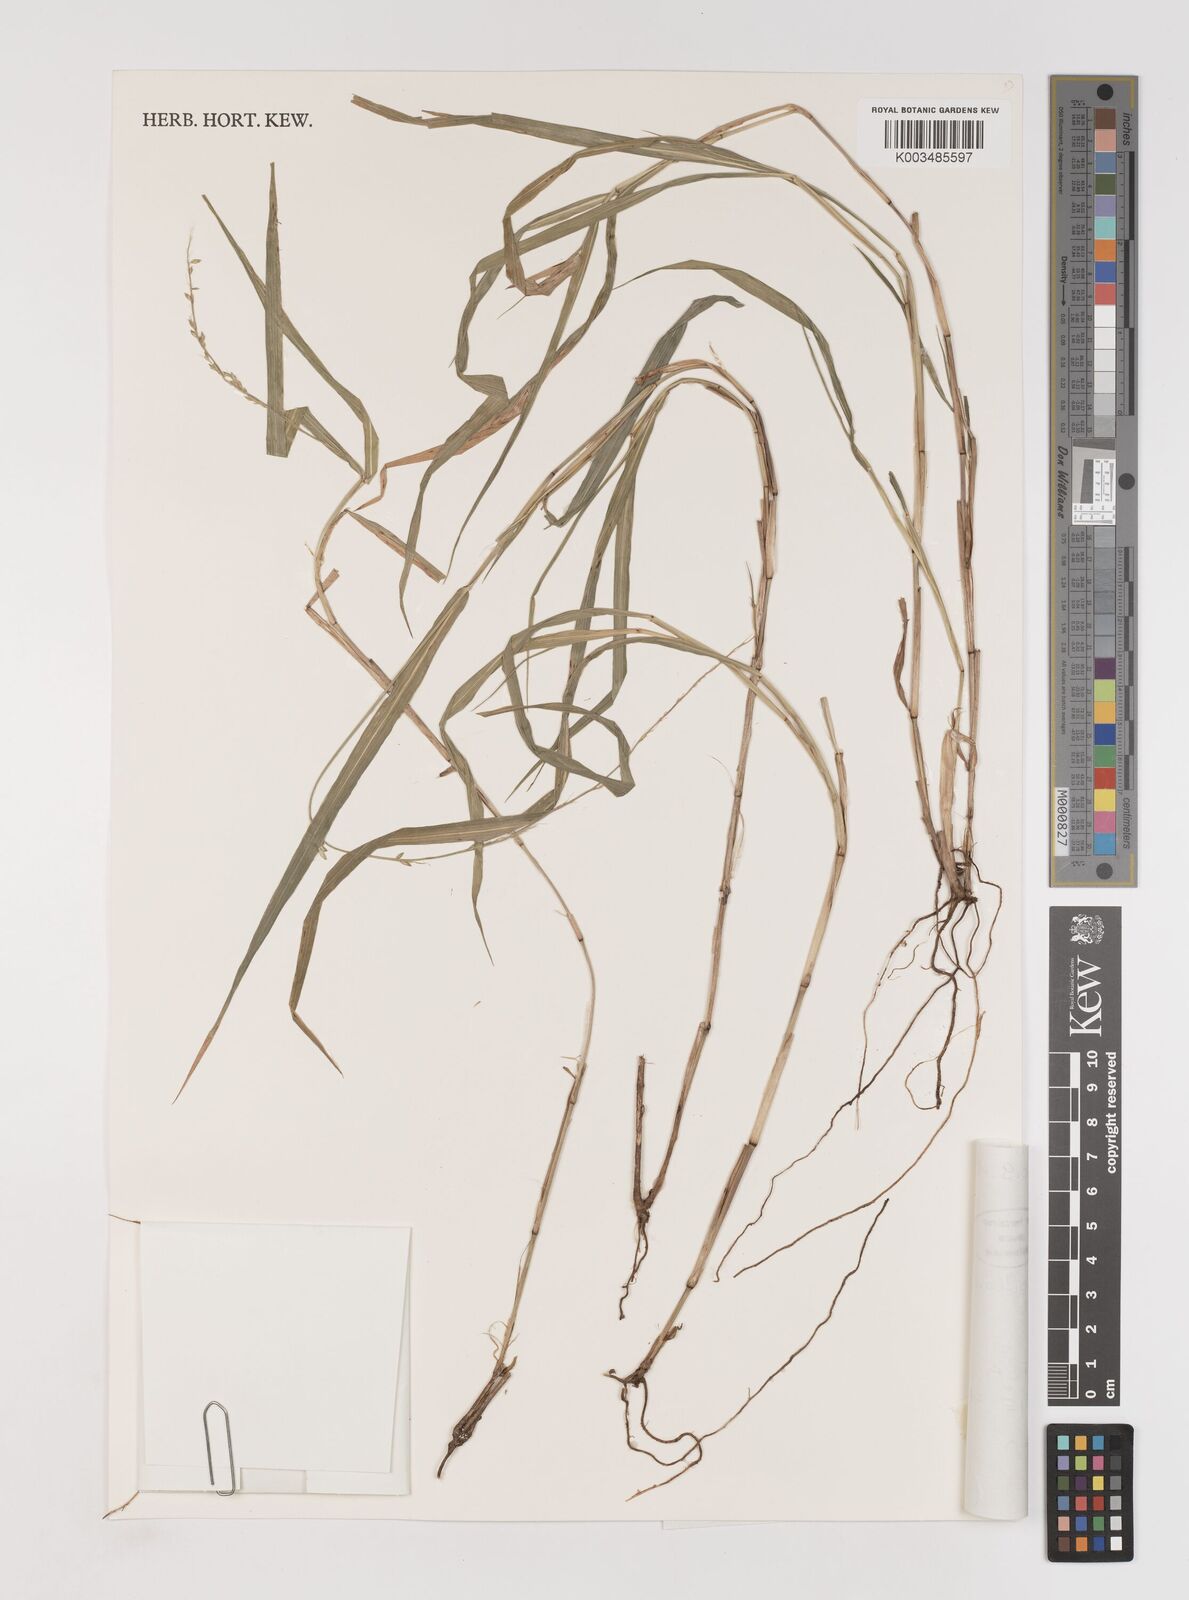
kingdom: Plantae
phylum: Tracheophyta
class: Liliopsida
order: Poales
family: Poaceae
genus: Setaria
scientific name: Setaria austrocaledonica
